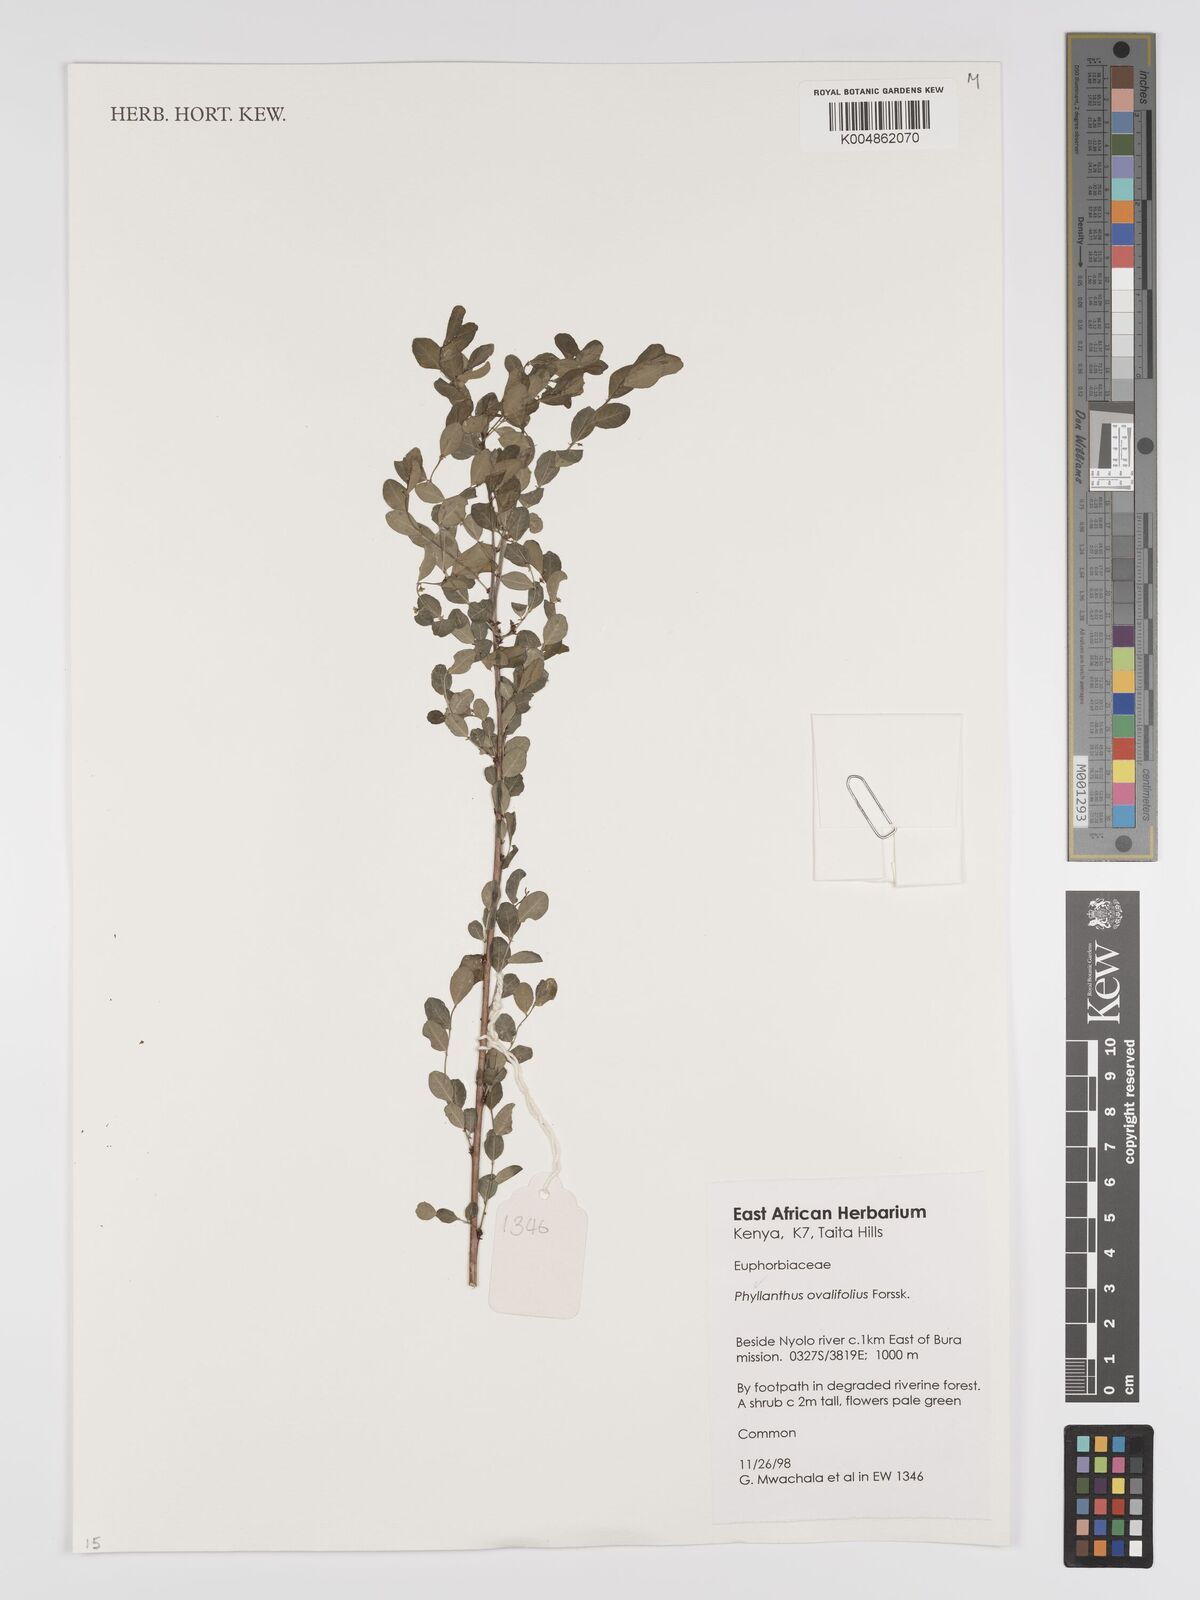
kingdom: Plantae
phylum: Tracheophyta
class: Magnoliopsida
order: Malpighiales
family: Phyllanthaceae
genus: Phyllanthus
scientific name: Phyllanthus ovalifolius
